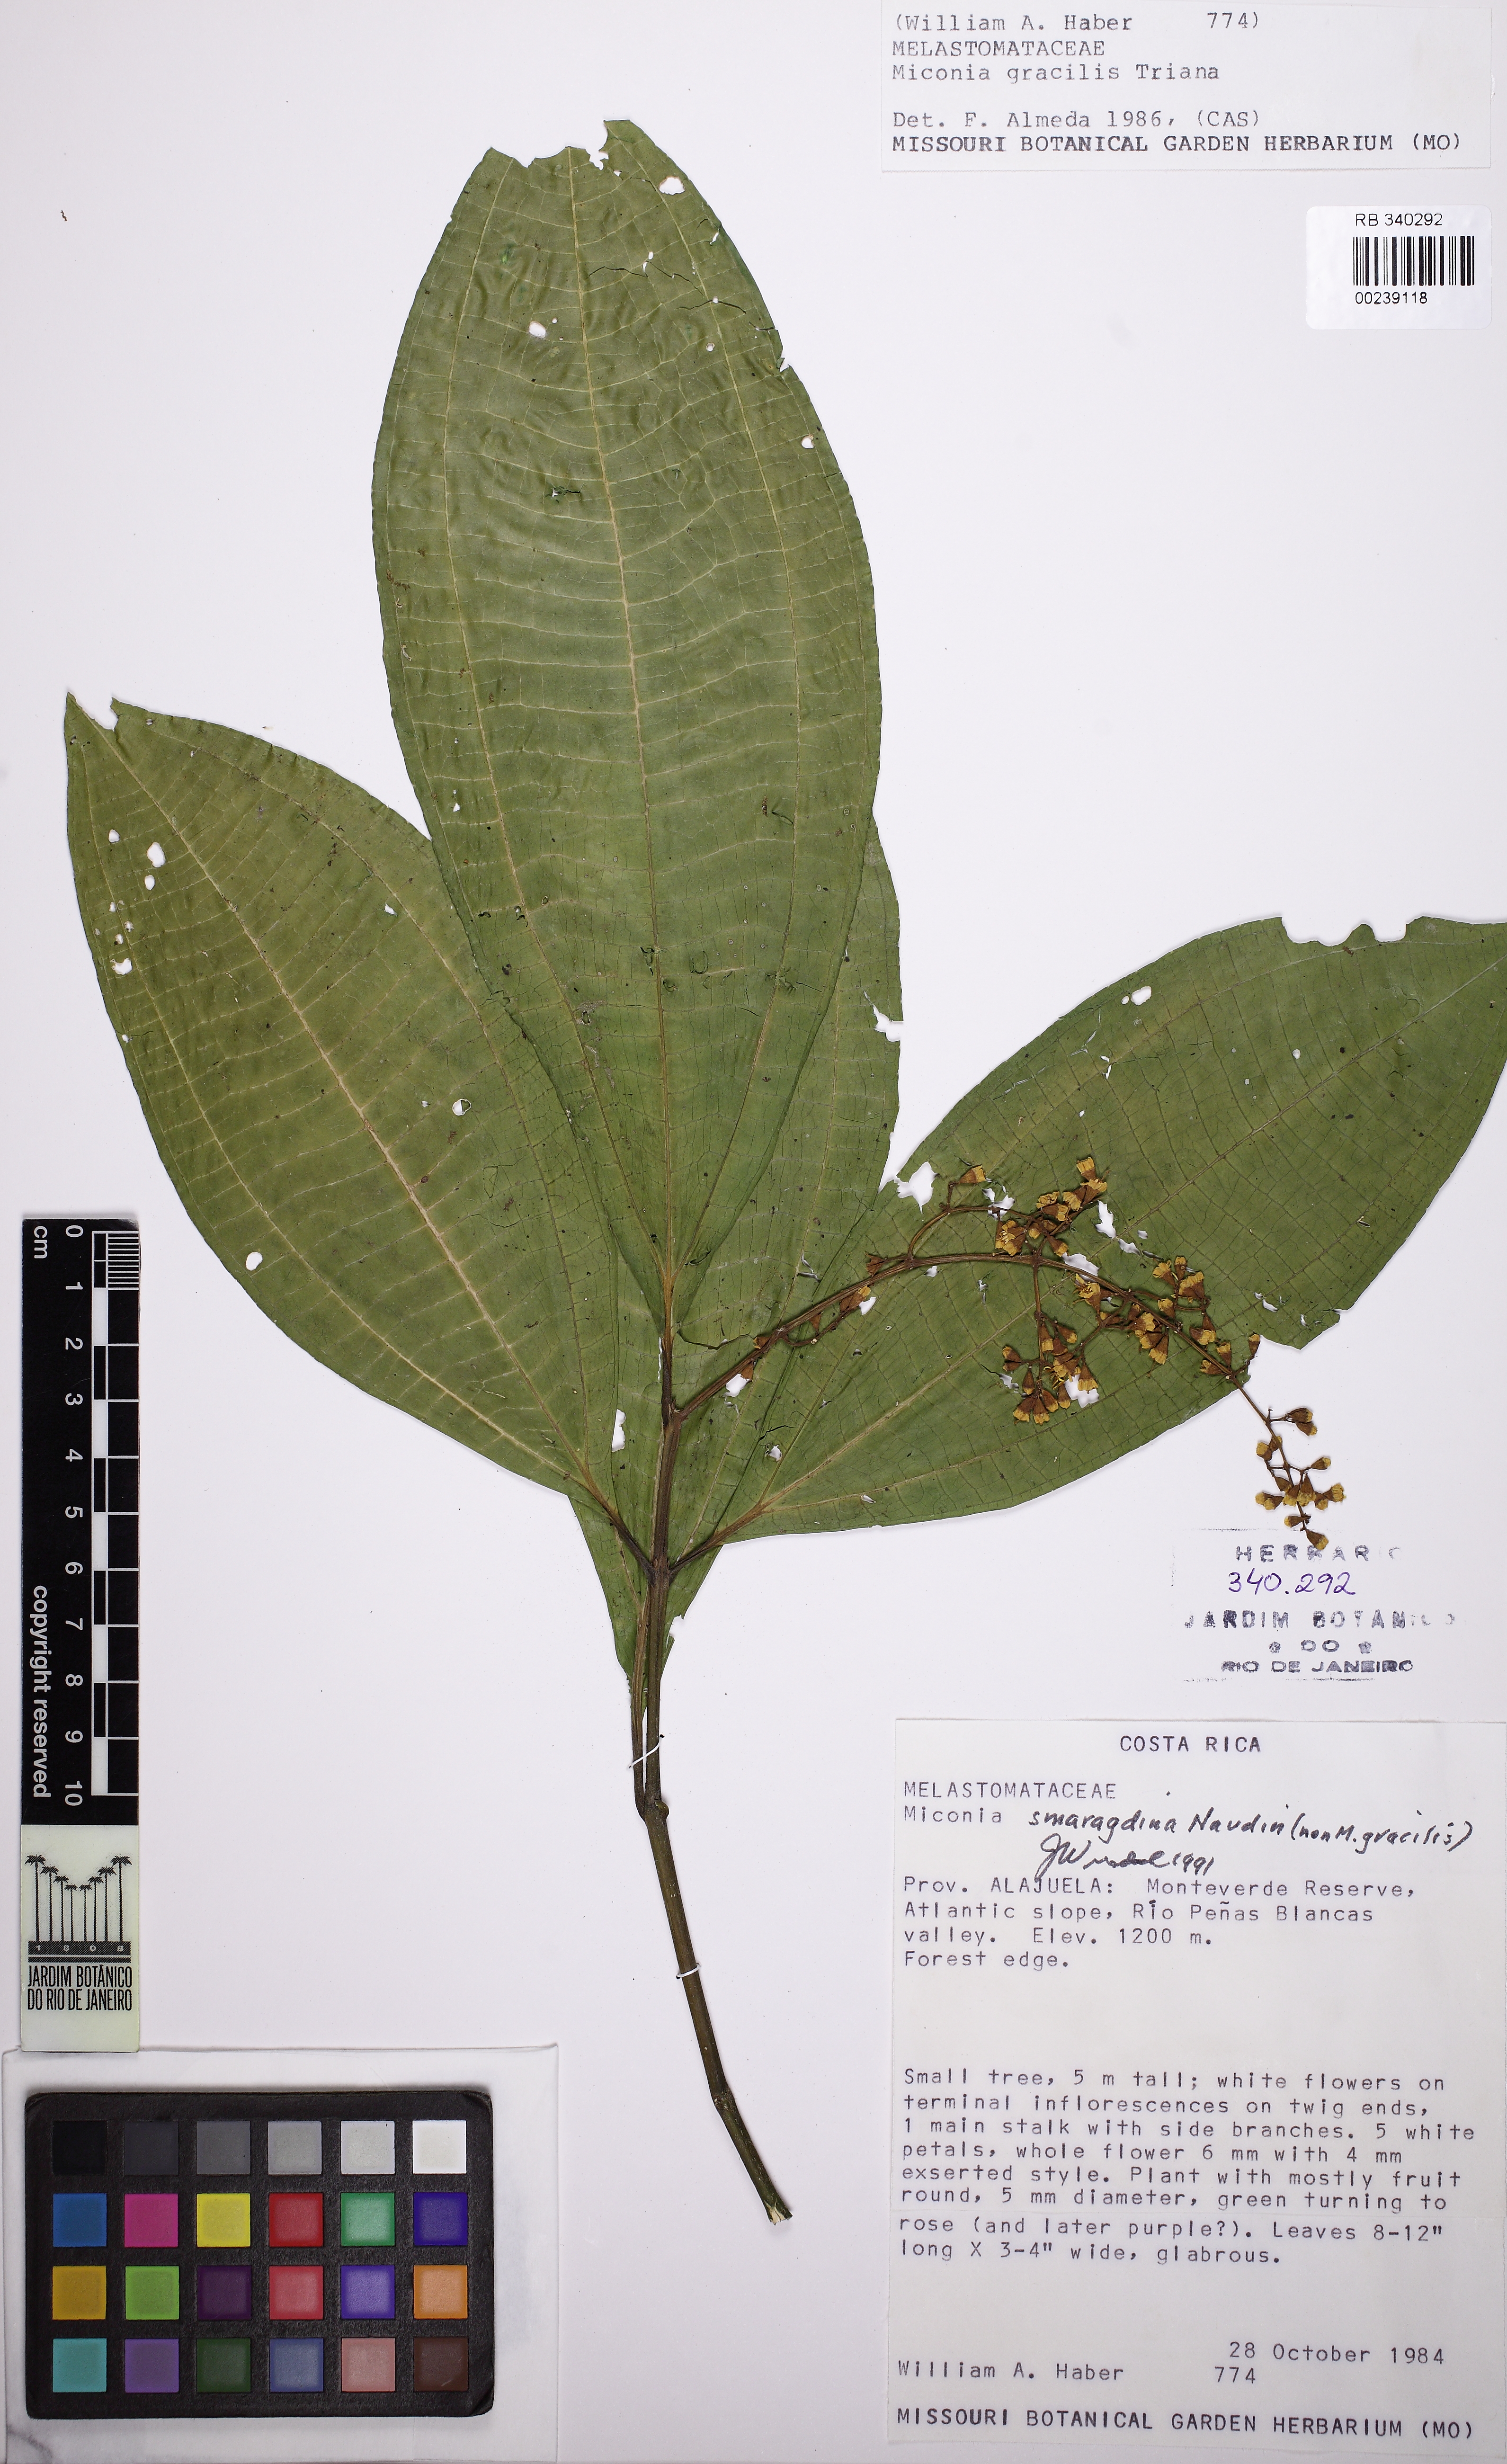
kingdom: Plantae
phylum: Tracheophyta
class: Magnoliopsida
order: Myrtales
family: Melastomataceae
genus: Miconia
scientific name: Miconia smaragdina
